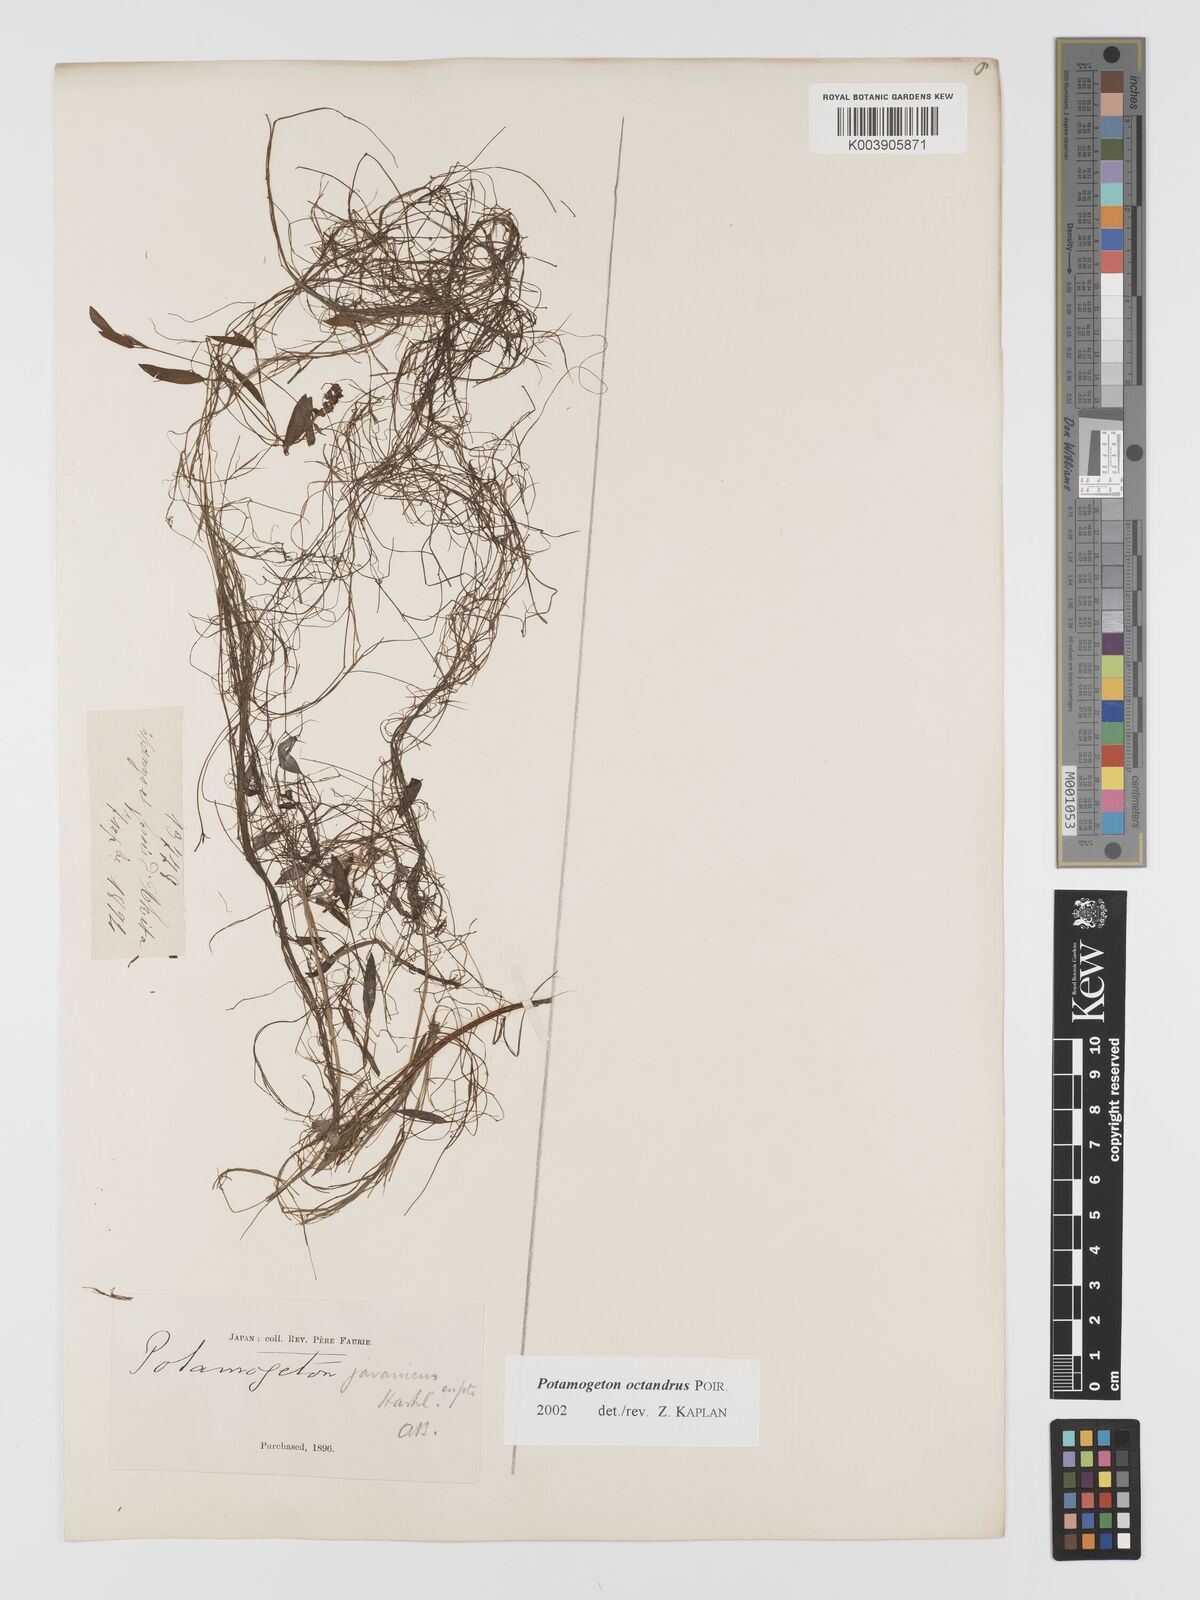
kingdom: Plantae
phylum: Tracheophyta
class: Liliopsida
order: Alismatales
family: Potamogetonaceae
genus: Potamogeton
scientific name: Potamogeton octandrus
